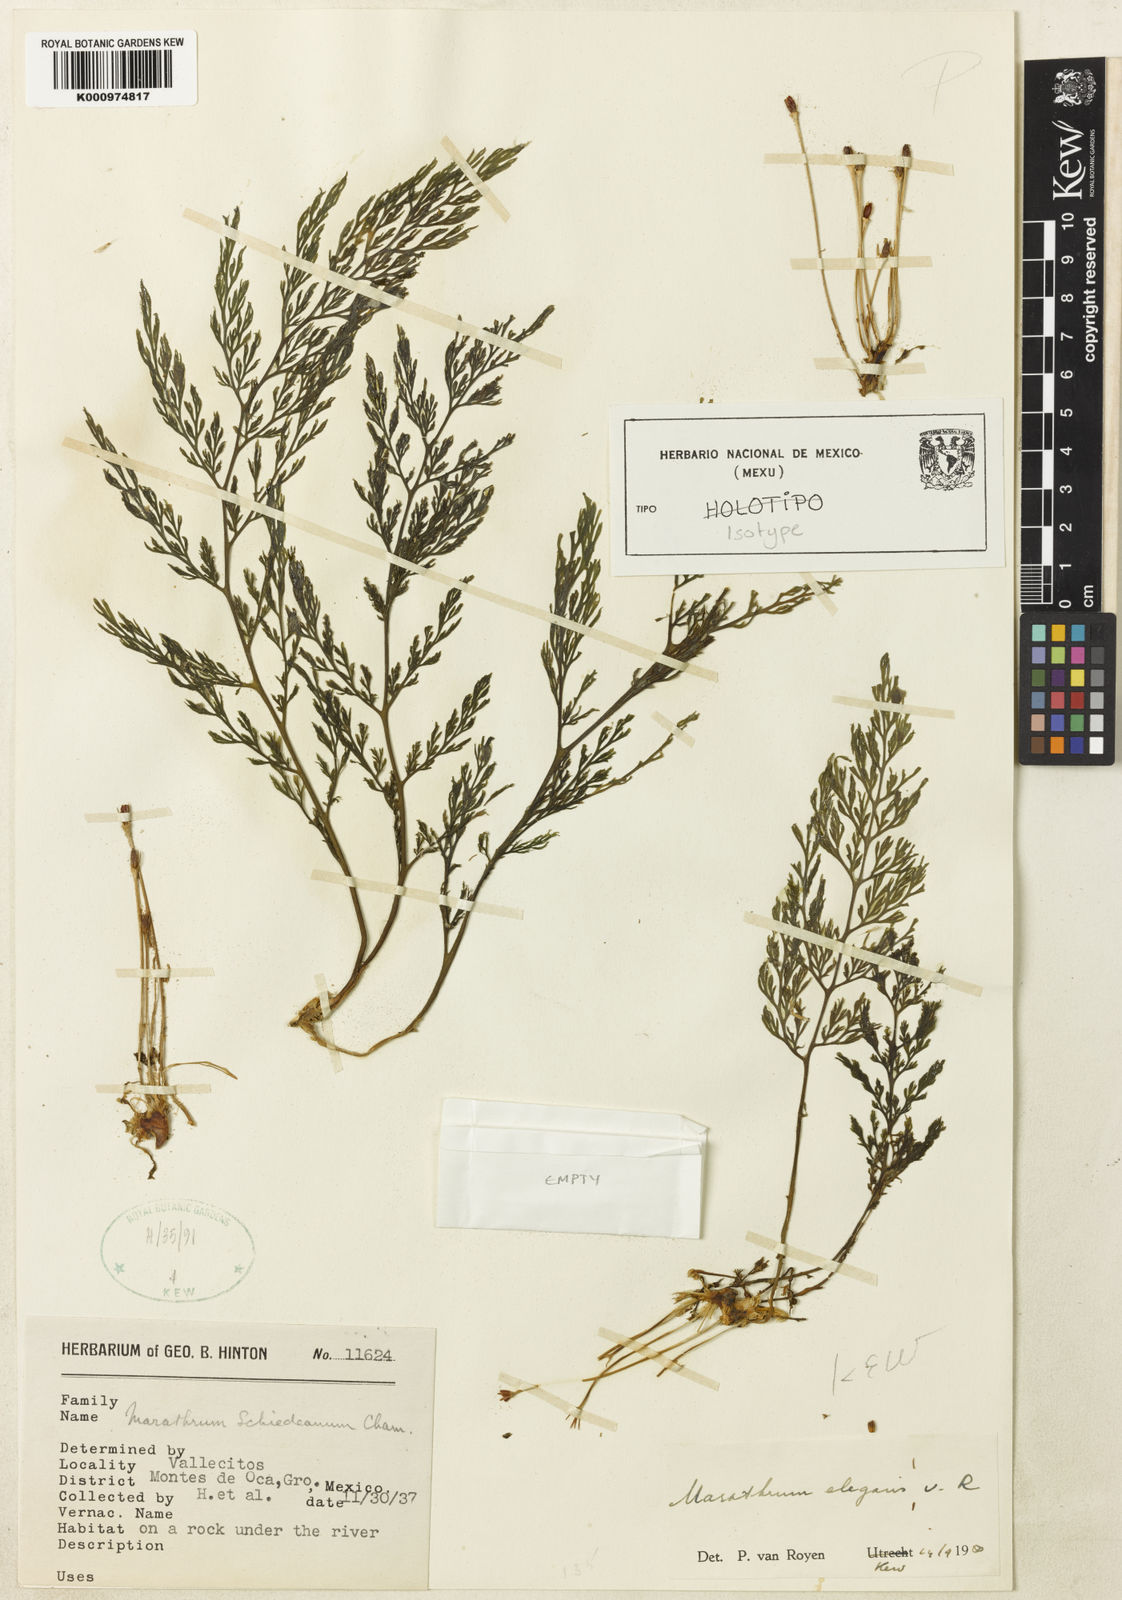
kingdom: Plantae
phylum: Tracheophyta
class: Magnoliopsida
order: Malpighiales
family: Podostemaceae
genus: Marathrum
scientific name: Marathrum foeniculaceum
